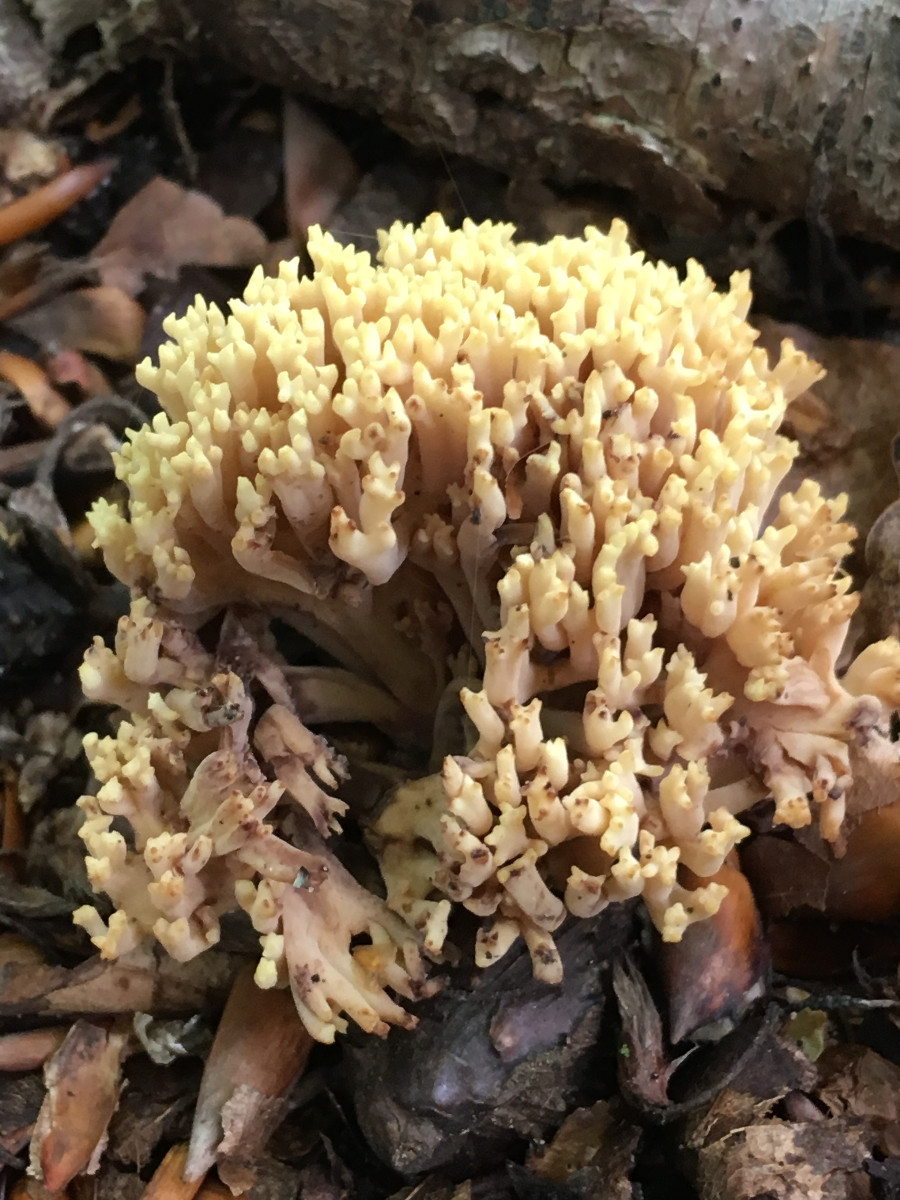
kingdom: Fungi
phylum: Basidiomycota
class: Agaricomycetes
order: Gomphales
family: Gomphaceae
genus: Ramaria
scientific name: Ramaria stricta
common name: rank koralsvamp
